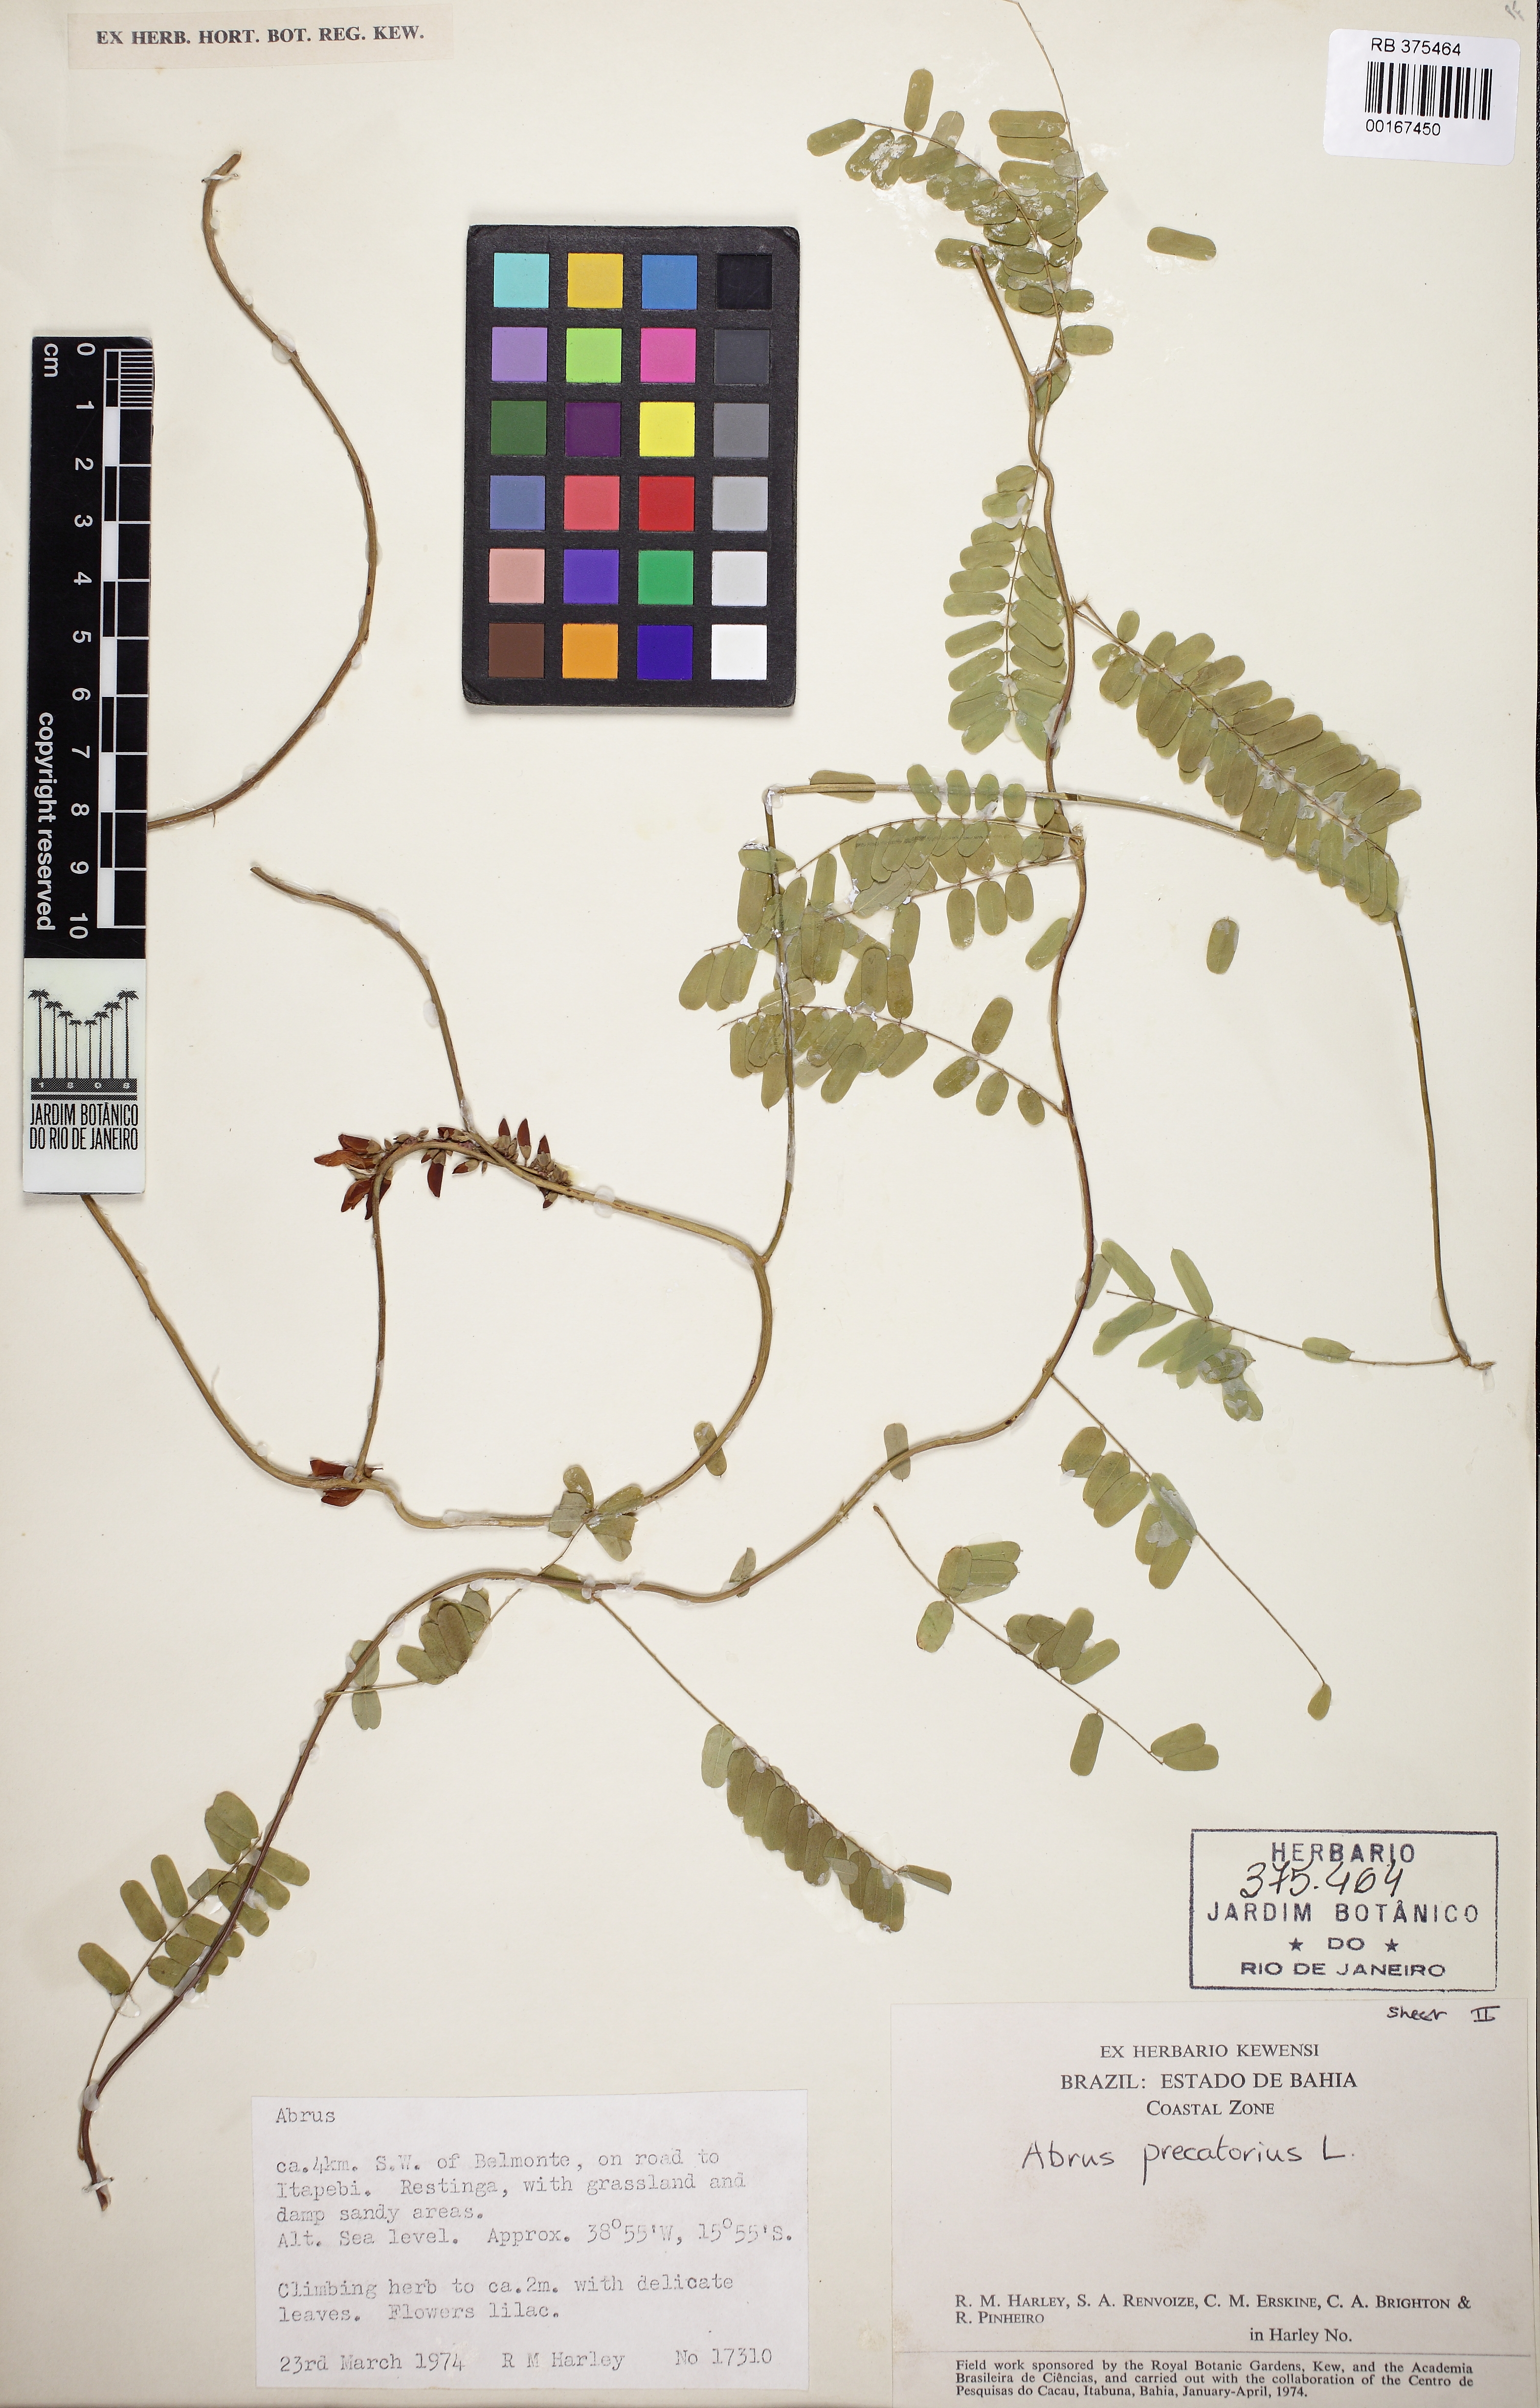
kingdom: Plantae
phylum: Tracheophyta
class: Magnoliopsida
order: Fabales
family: Fabaceae
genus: Abrus
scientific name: Abrus precatorius
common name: Rosarypea
